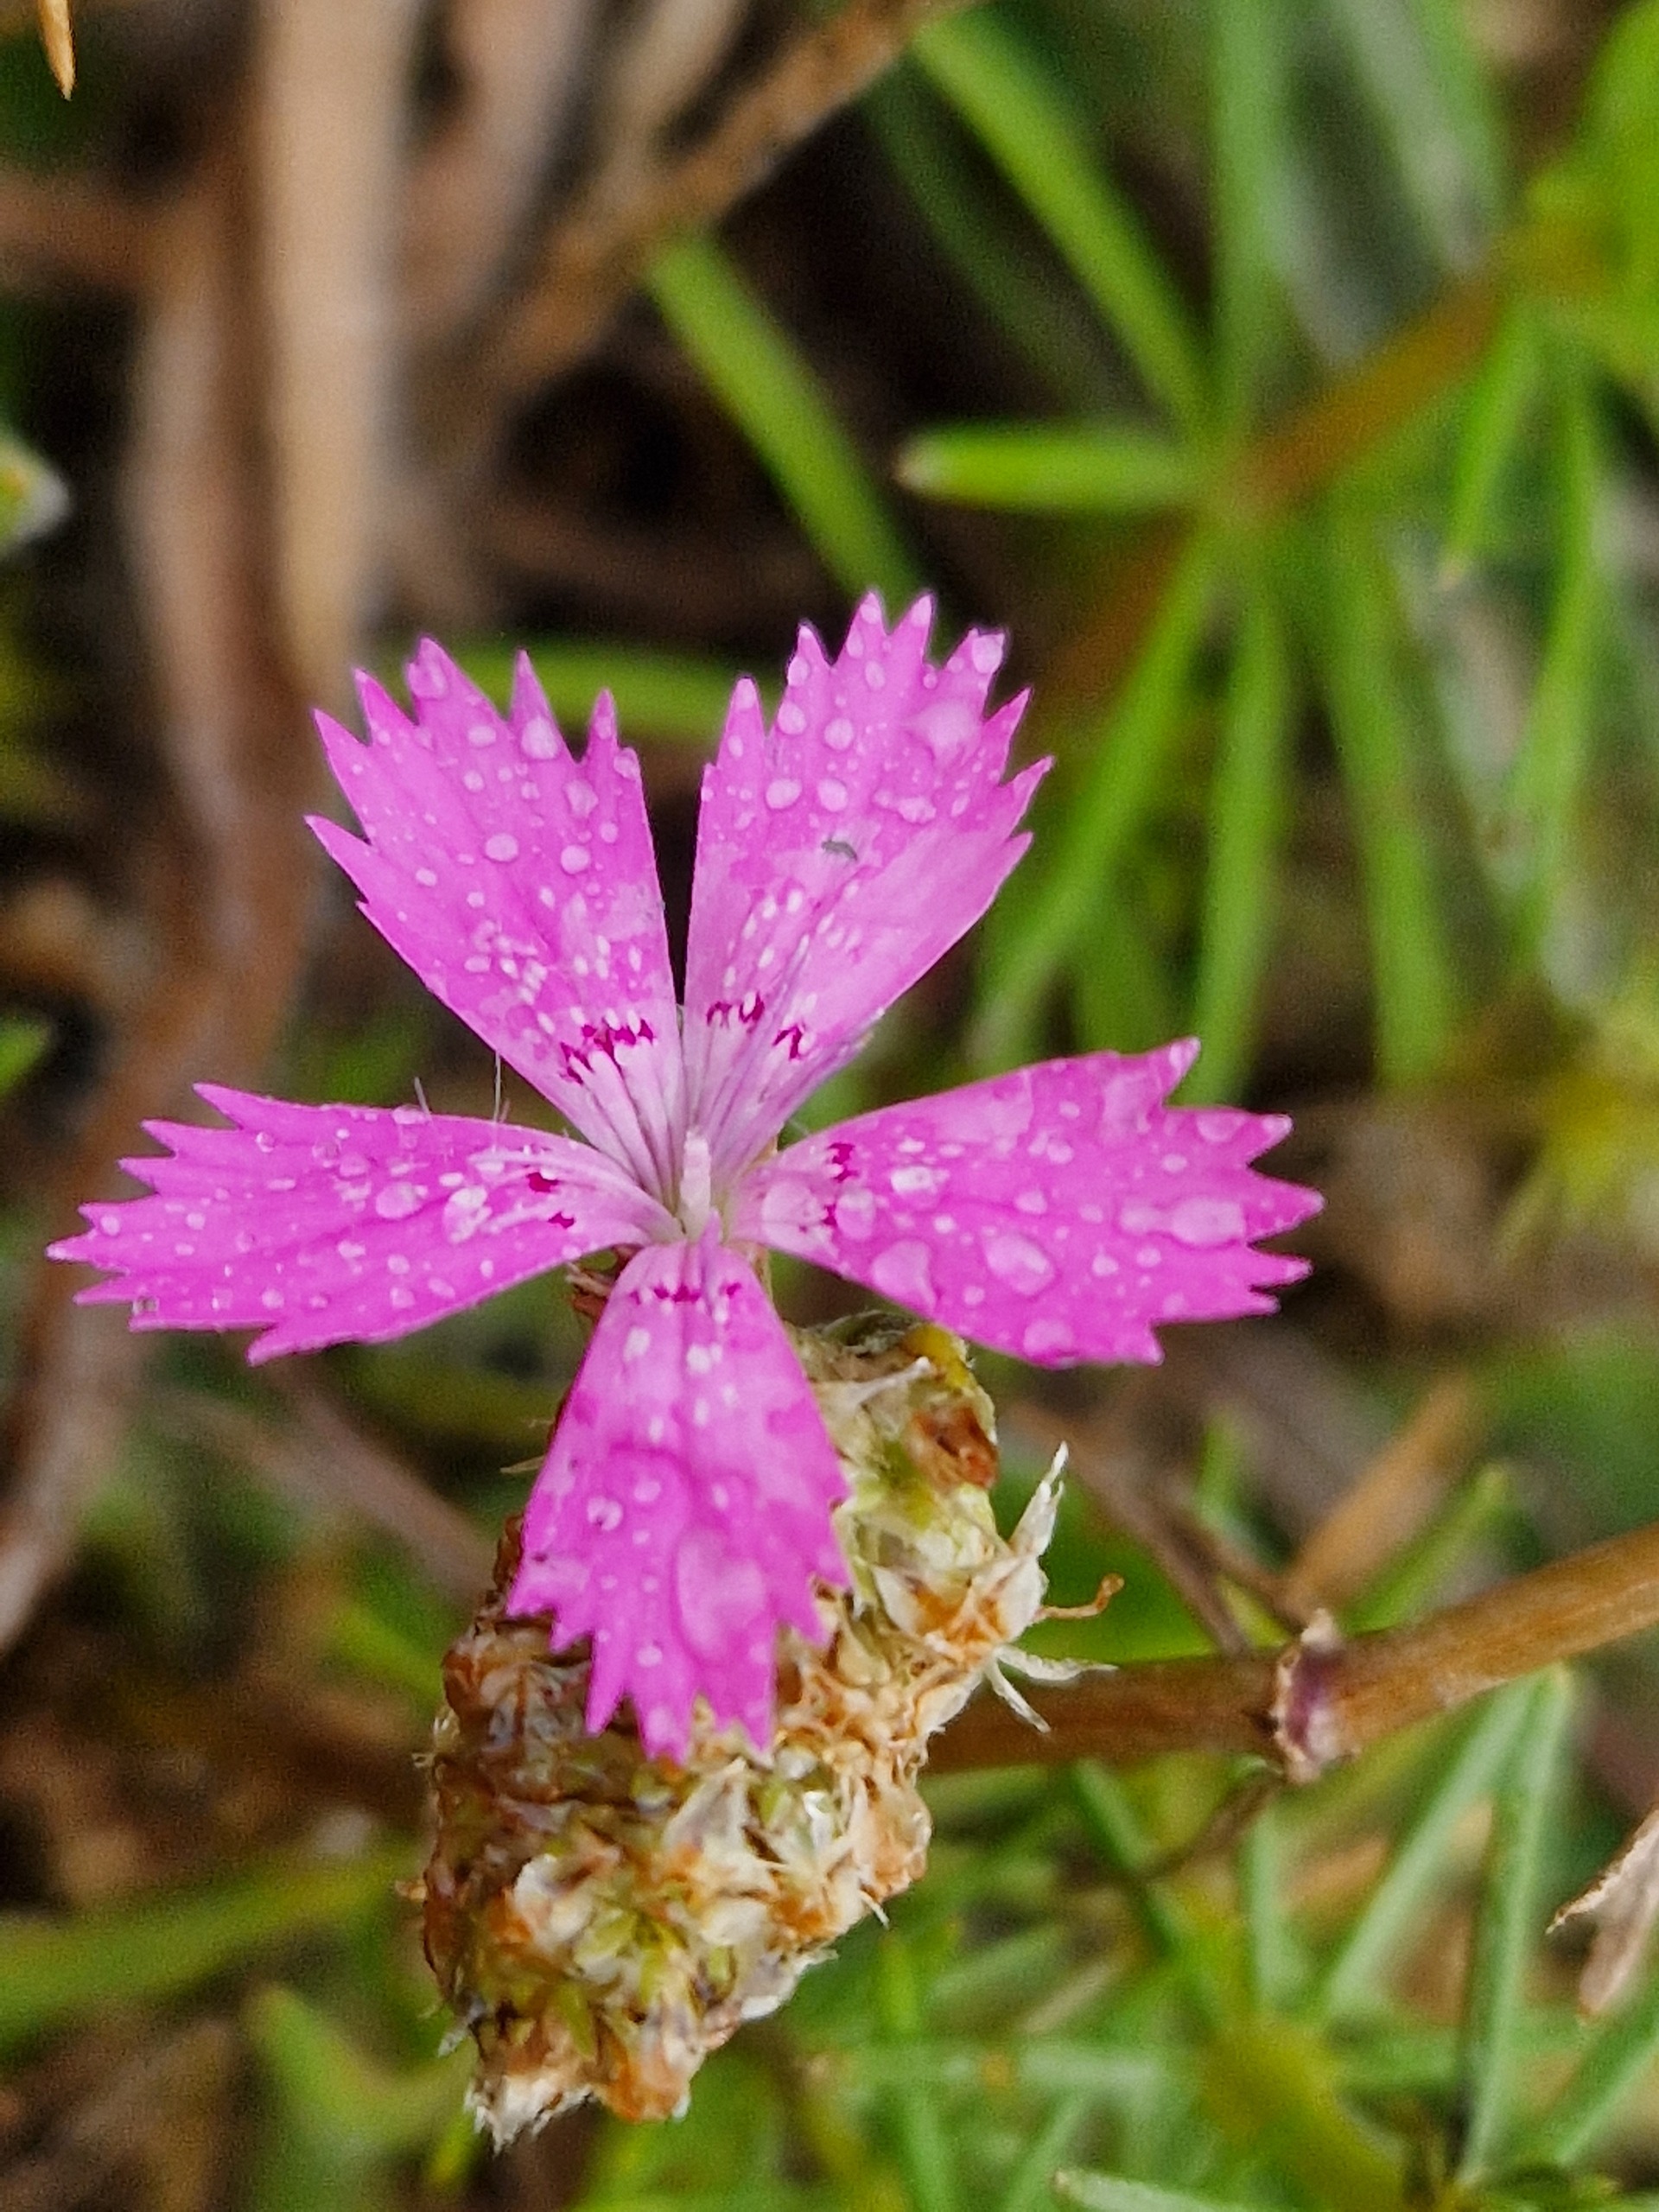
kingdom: Plantae
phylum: Tracheophyta
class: Magnoliopsida
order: Caryophyllales
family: Caryophyllaceae
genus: Dianthus
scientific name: Dianthus deltoides
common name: Bakke-nellike
